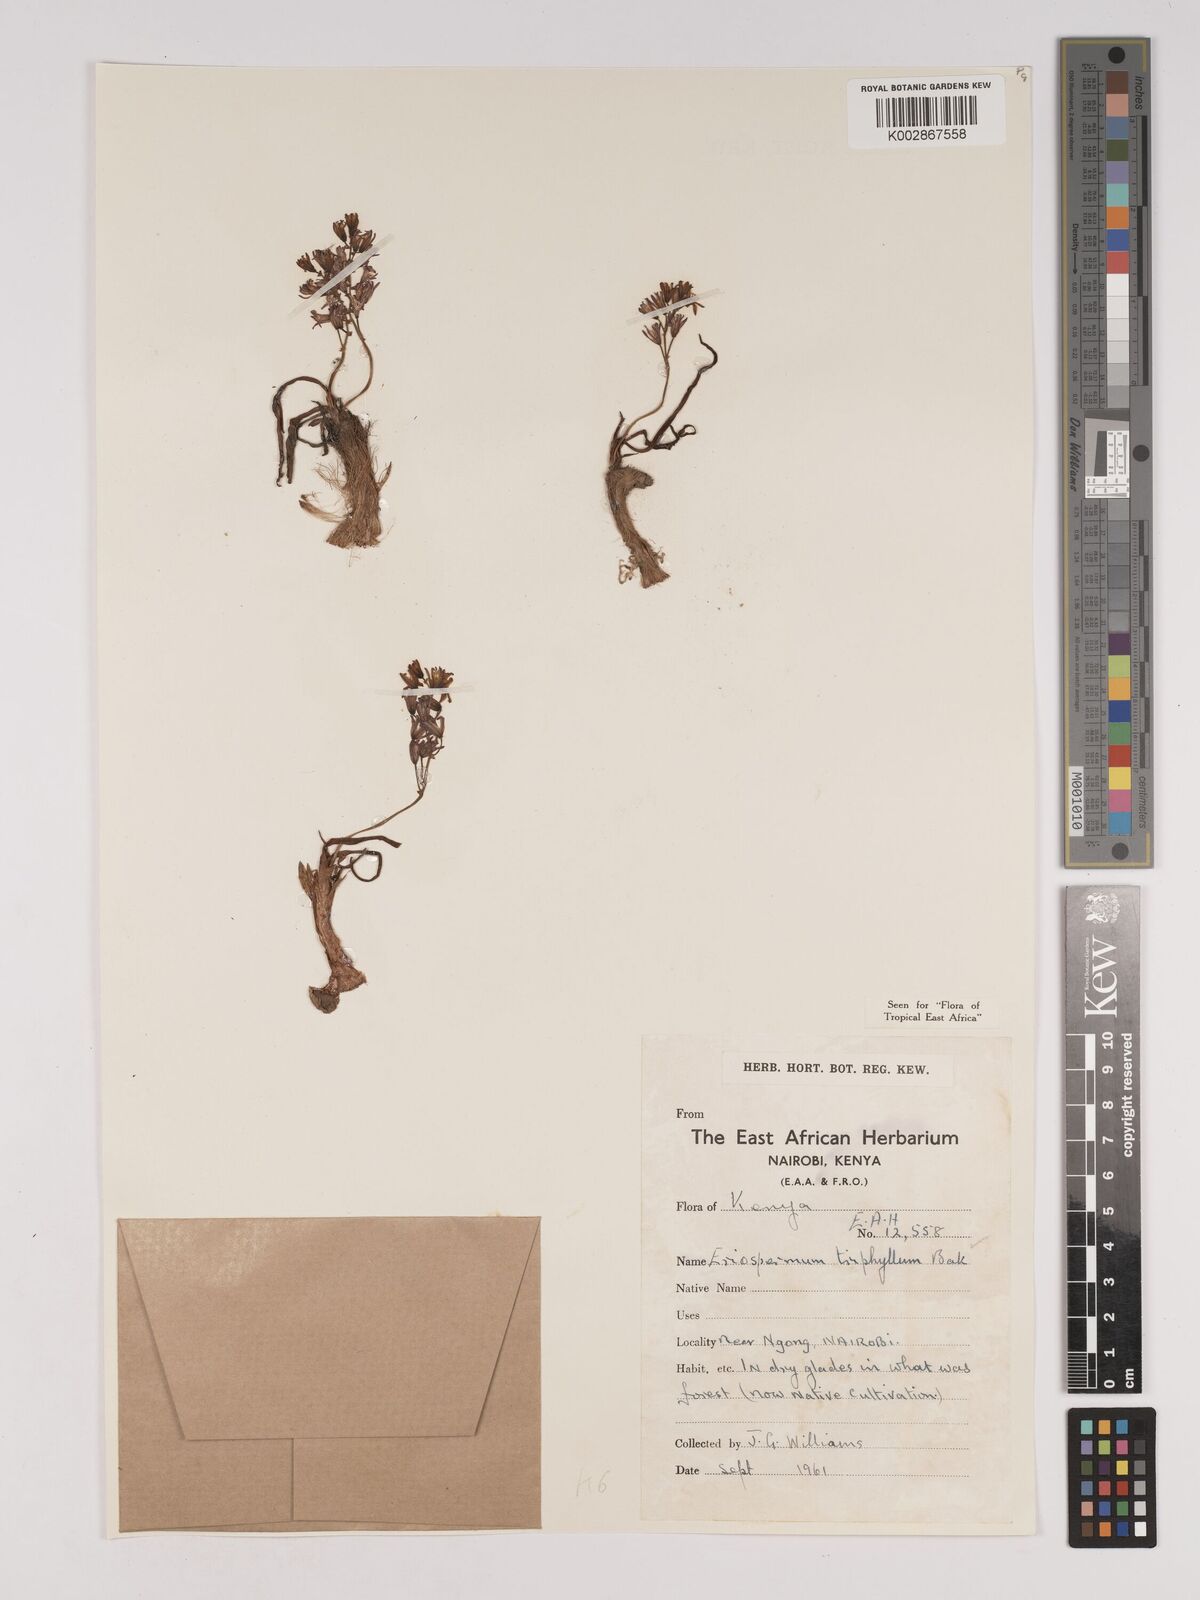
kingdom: Plantae
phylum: Tracheophyta
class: Liliopsida
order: Asparagales
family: Asparagaceae
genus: Eriospermum
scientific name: Eriospermum triphyllum
